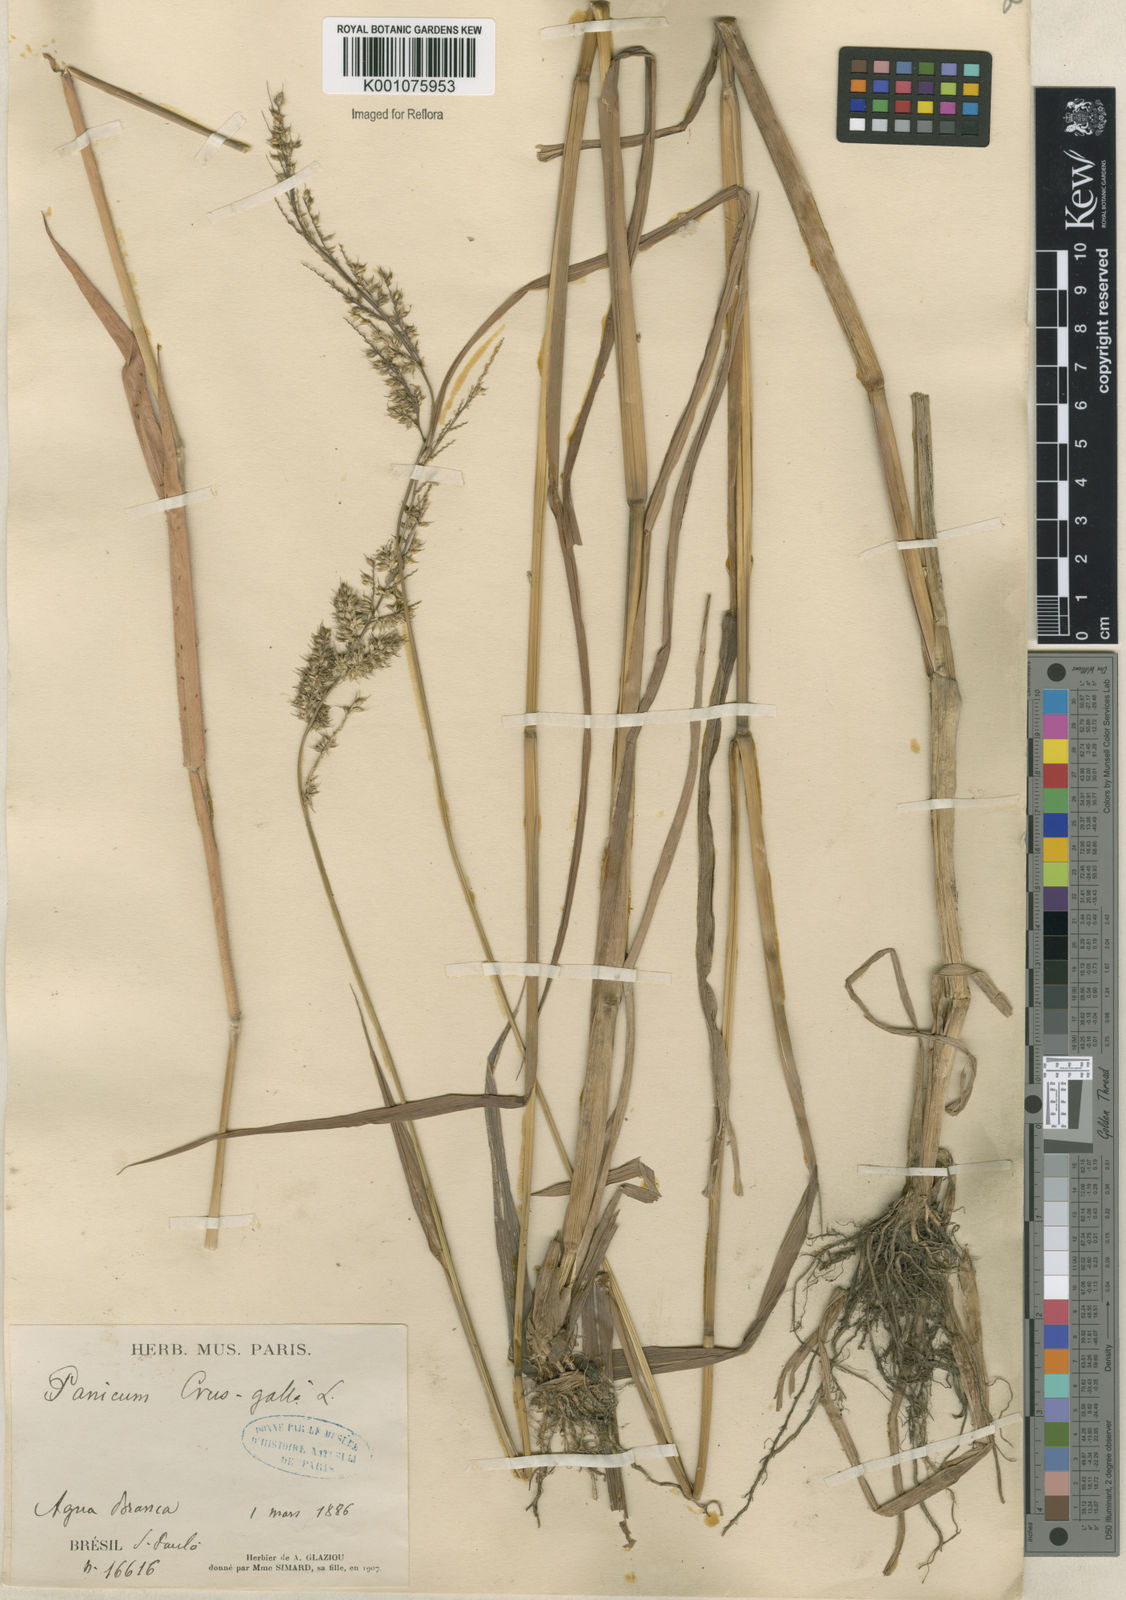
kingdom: Plantae
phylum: Tracheophyta
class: Liliopsida
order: Poales
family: Poaceae
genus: Echinochloa
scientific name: Echinochloa crus-pavonis
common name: Gulf cockspur grass
